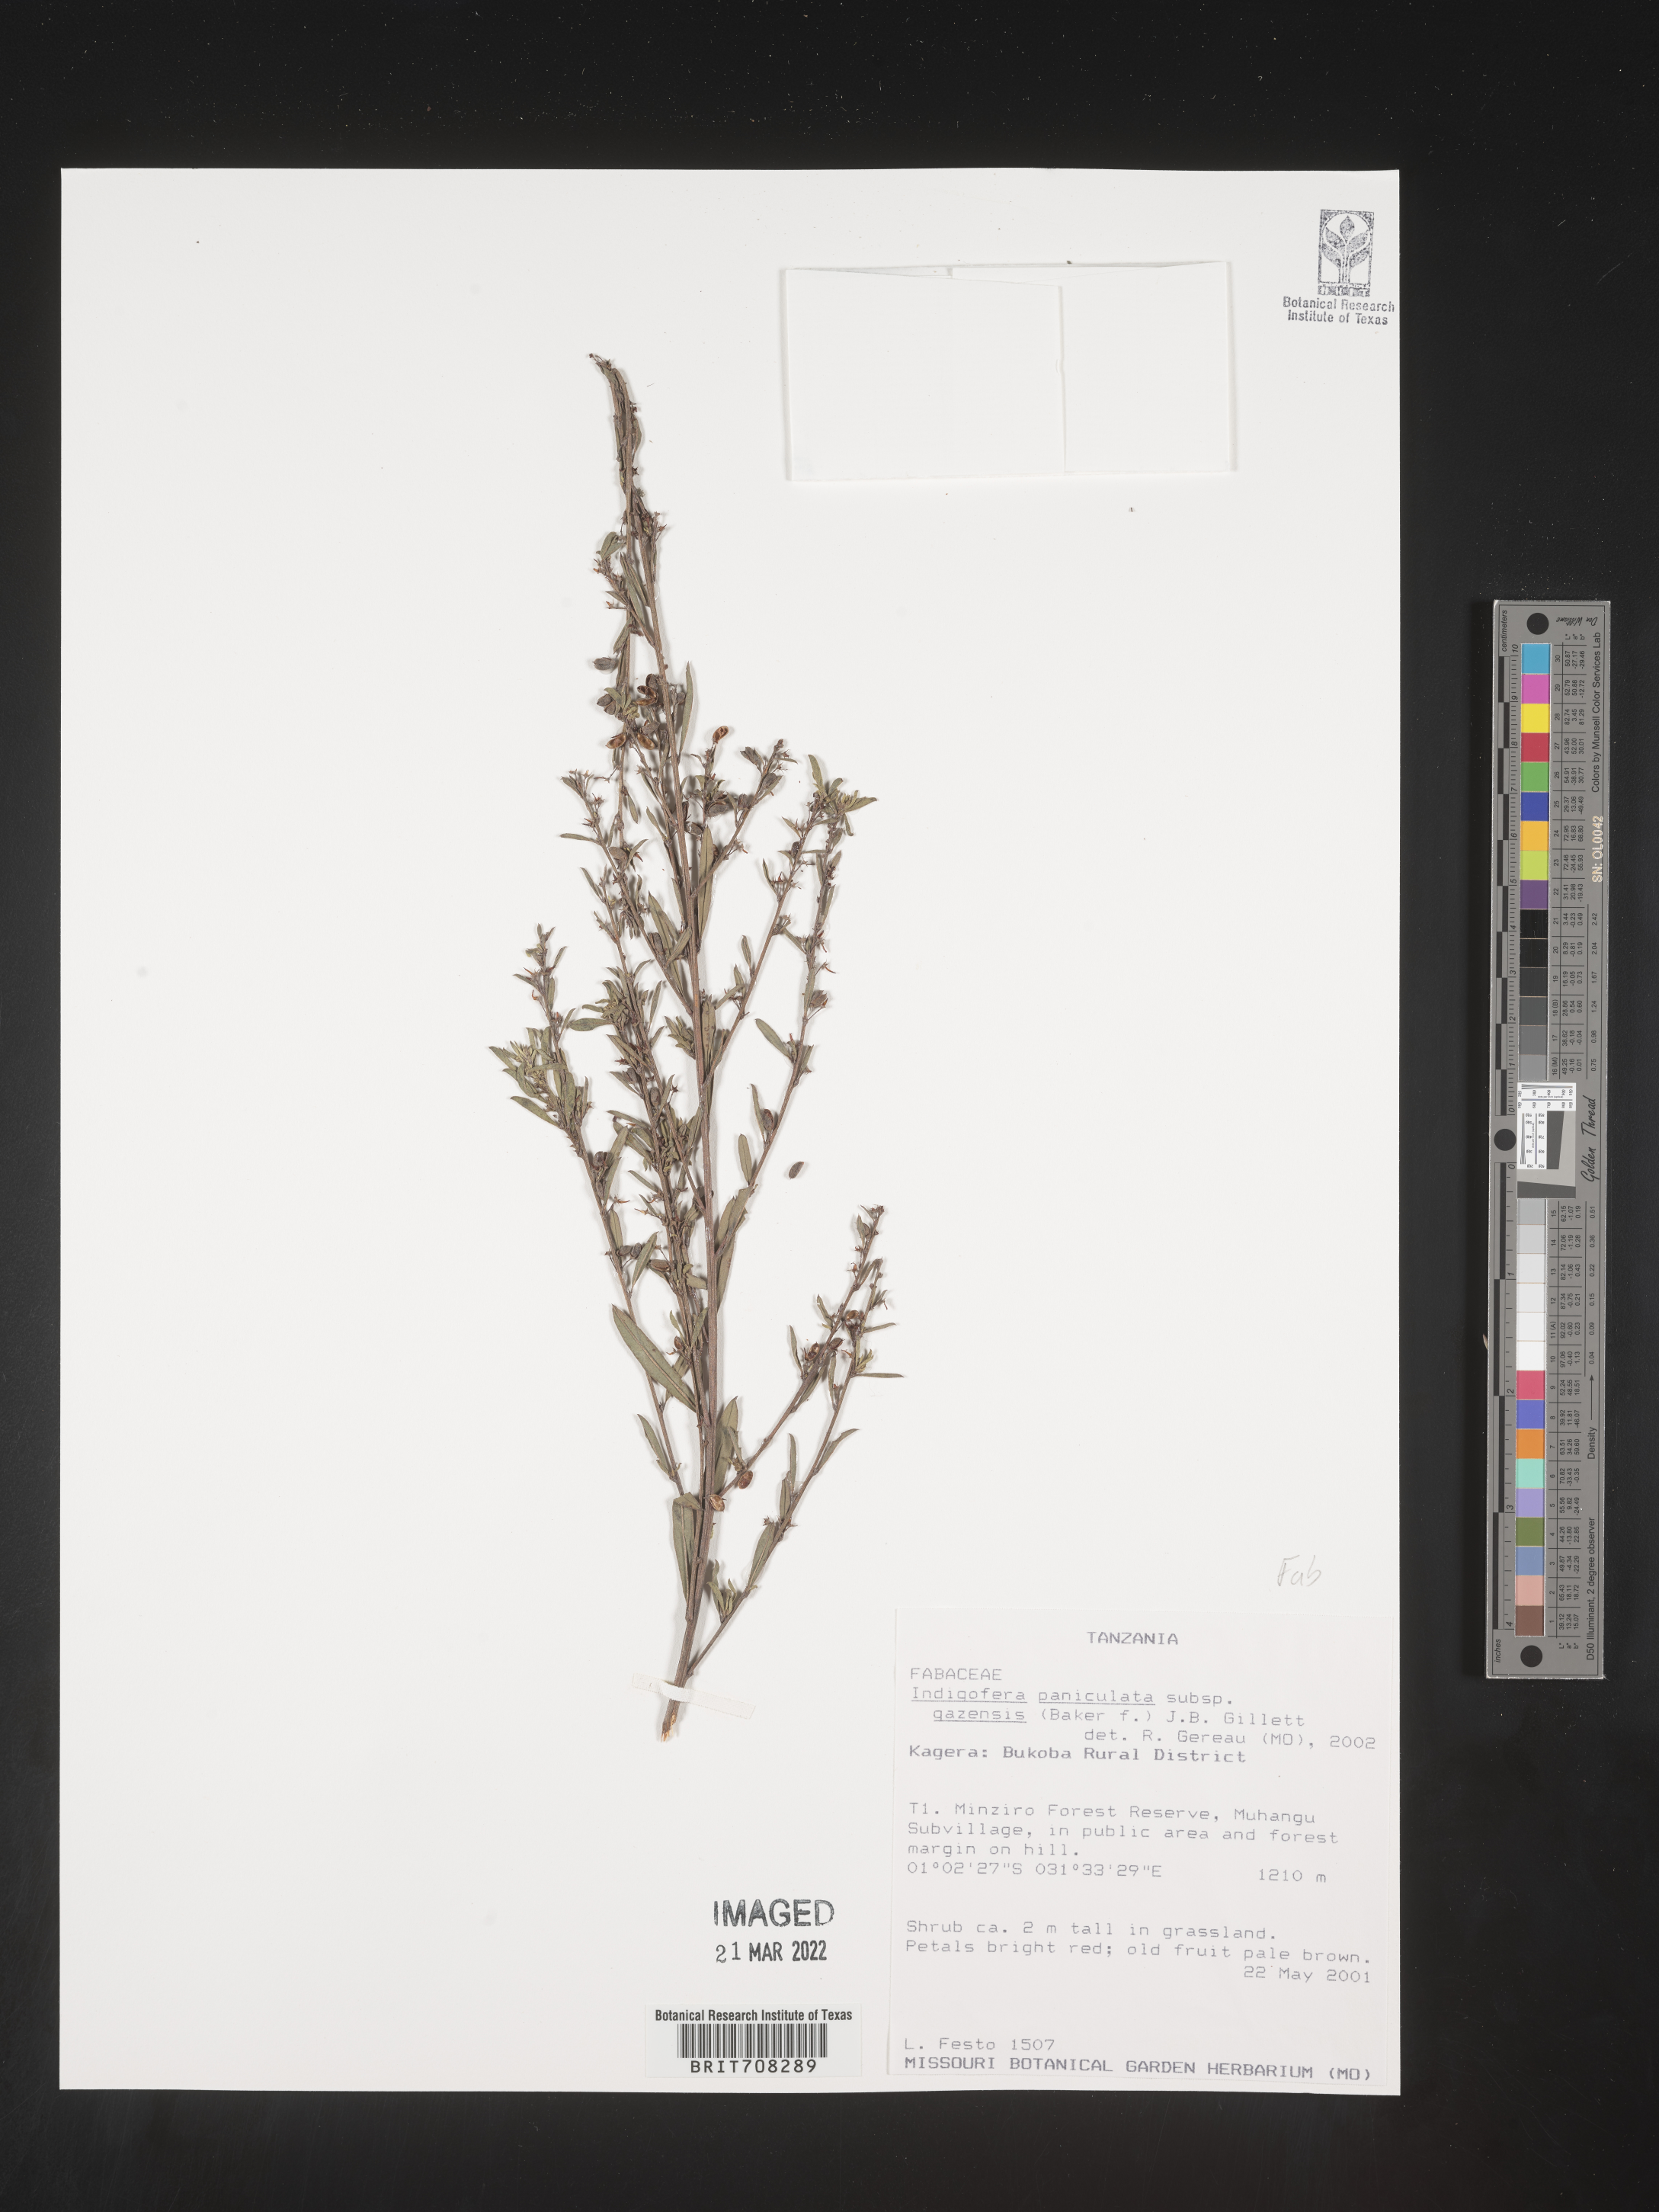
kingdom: Plantae
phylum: Tracheophyta
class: Magnoliopsida
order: Fabales
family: Fabaceae
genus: Indigofera
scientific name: Indigofera
